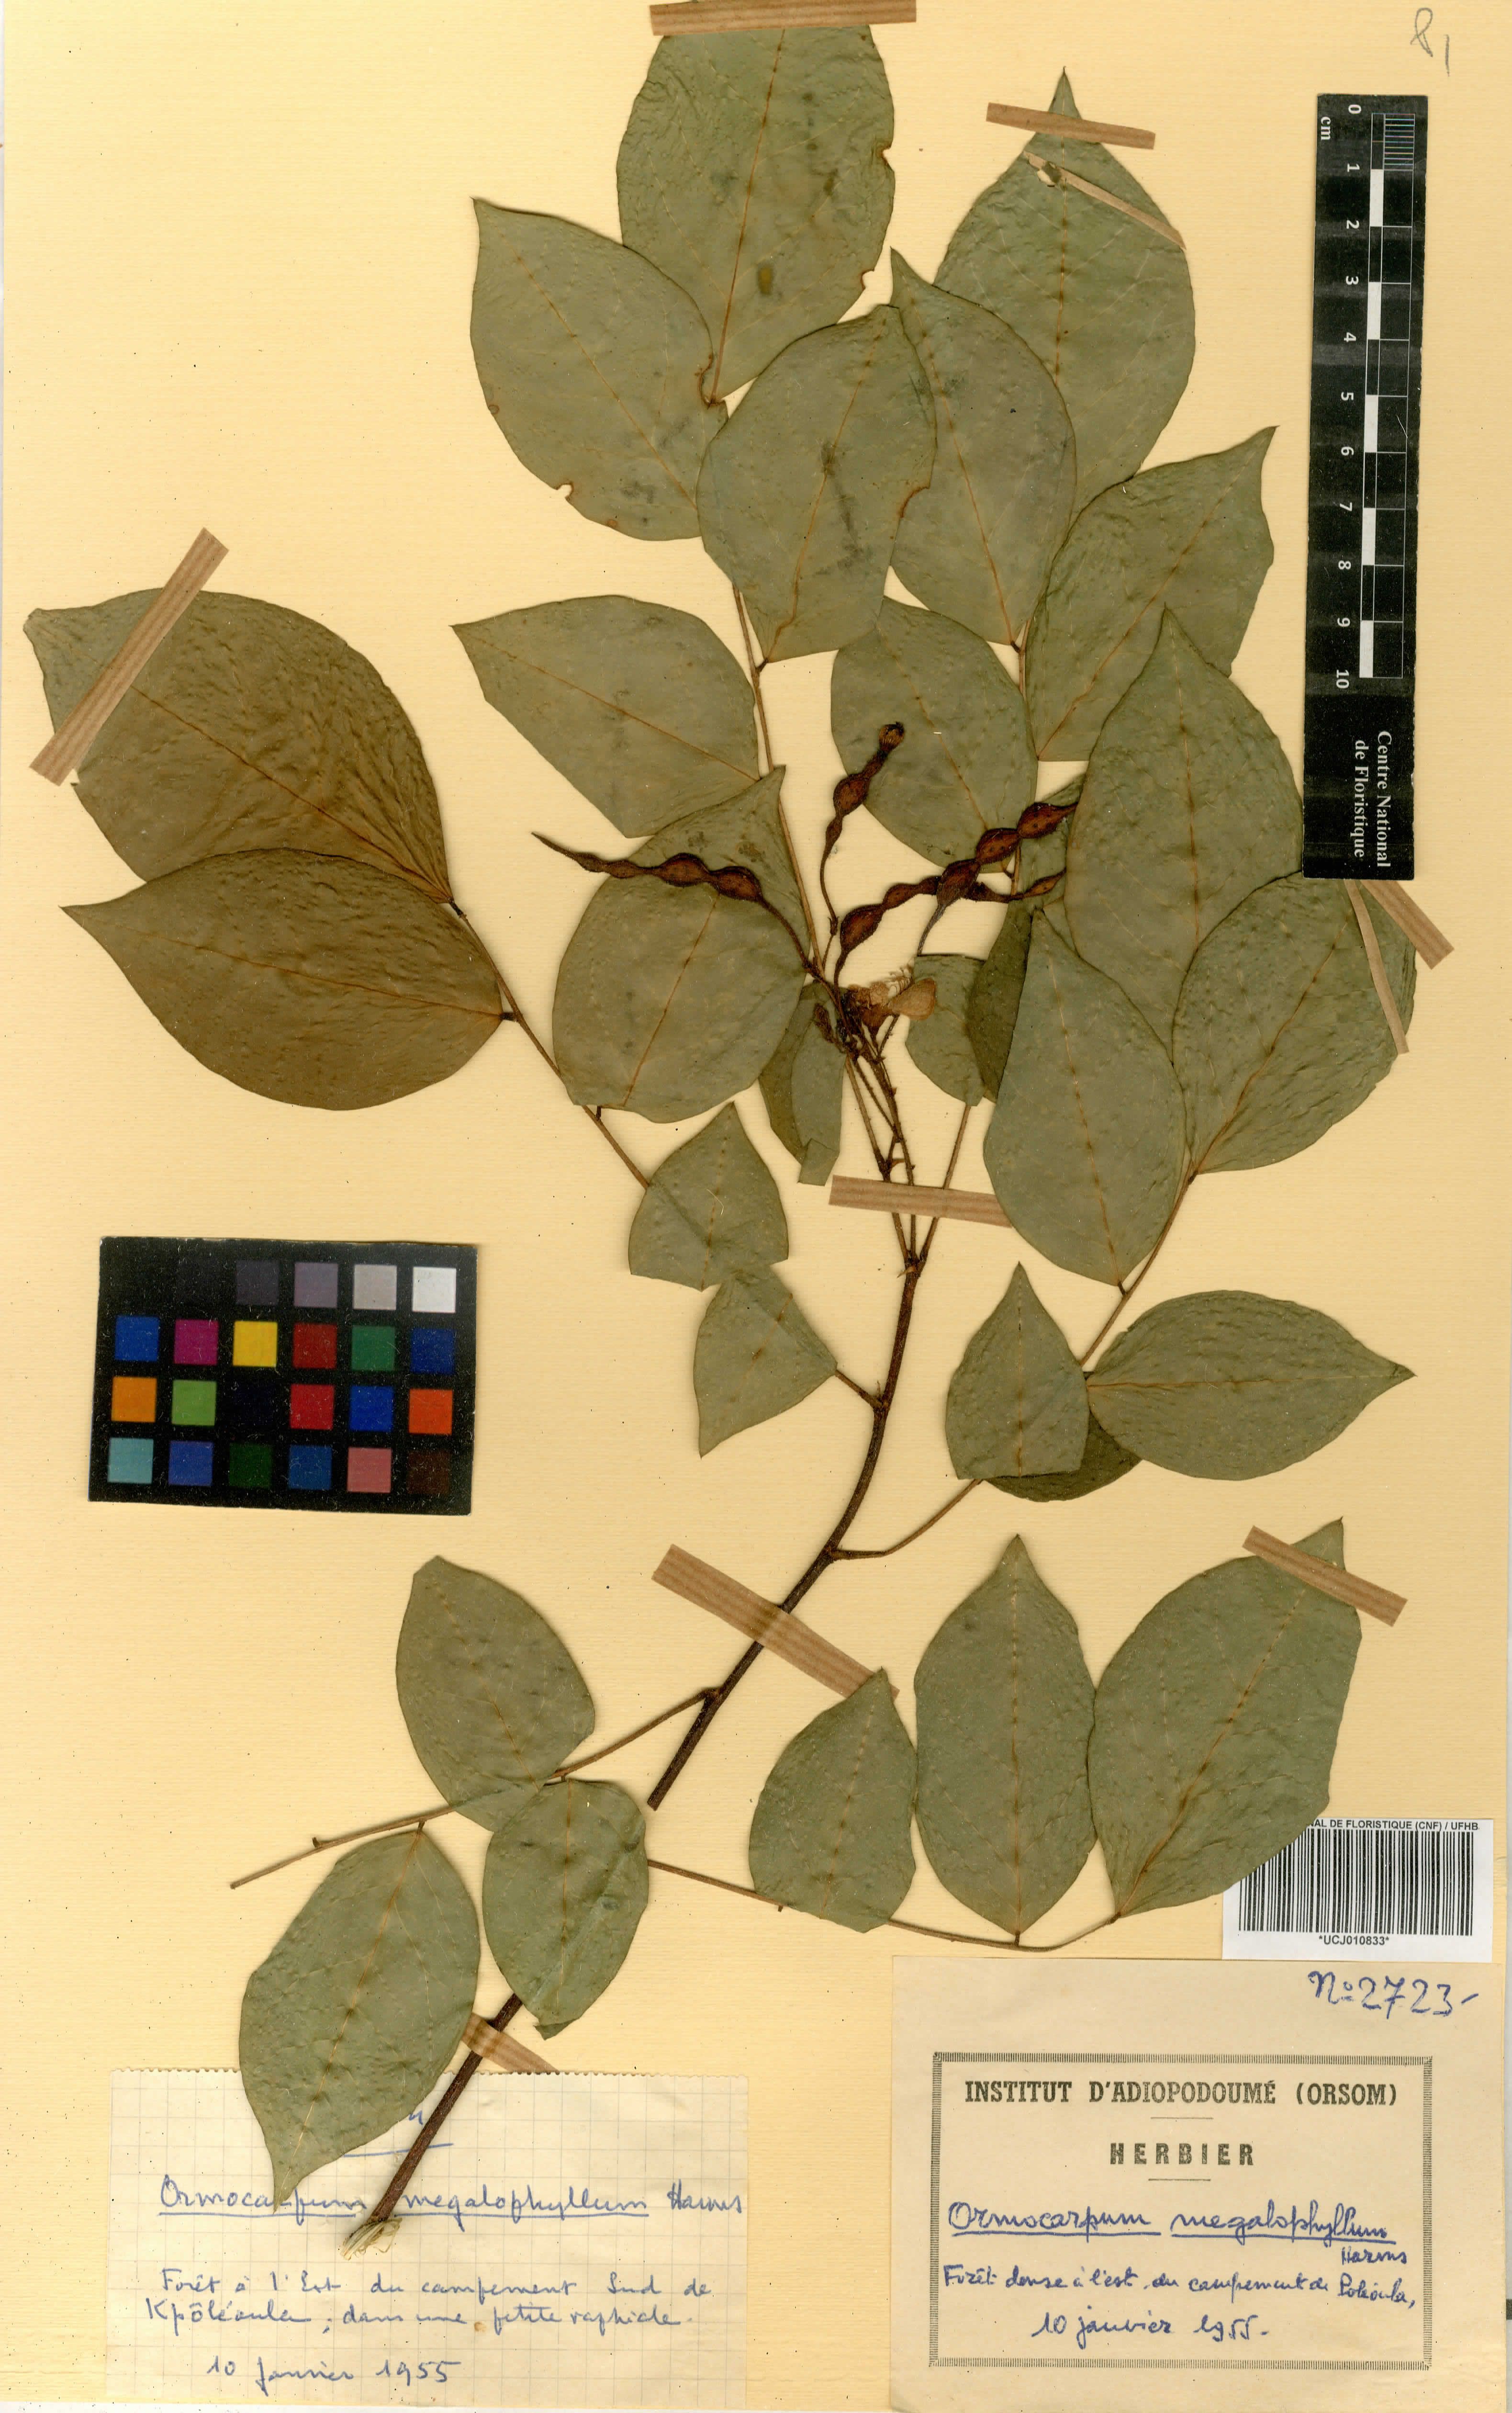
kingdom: Plantae
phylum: Tracheophyta
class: Magnoliopsida
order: Fabales
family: Fabaceae
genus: Ormocarpum
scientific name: Ormocarpum megalophyllum
